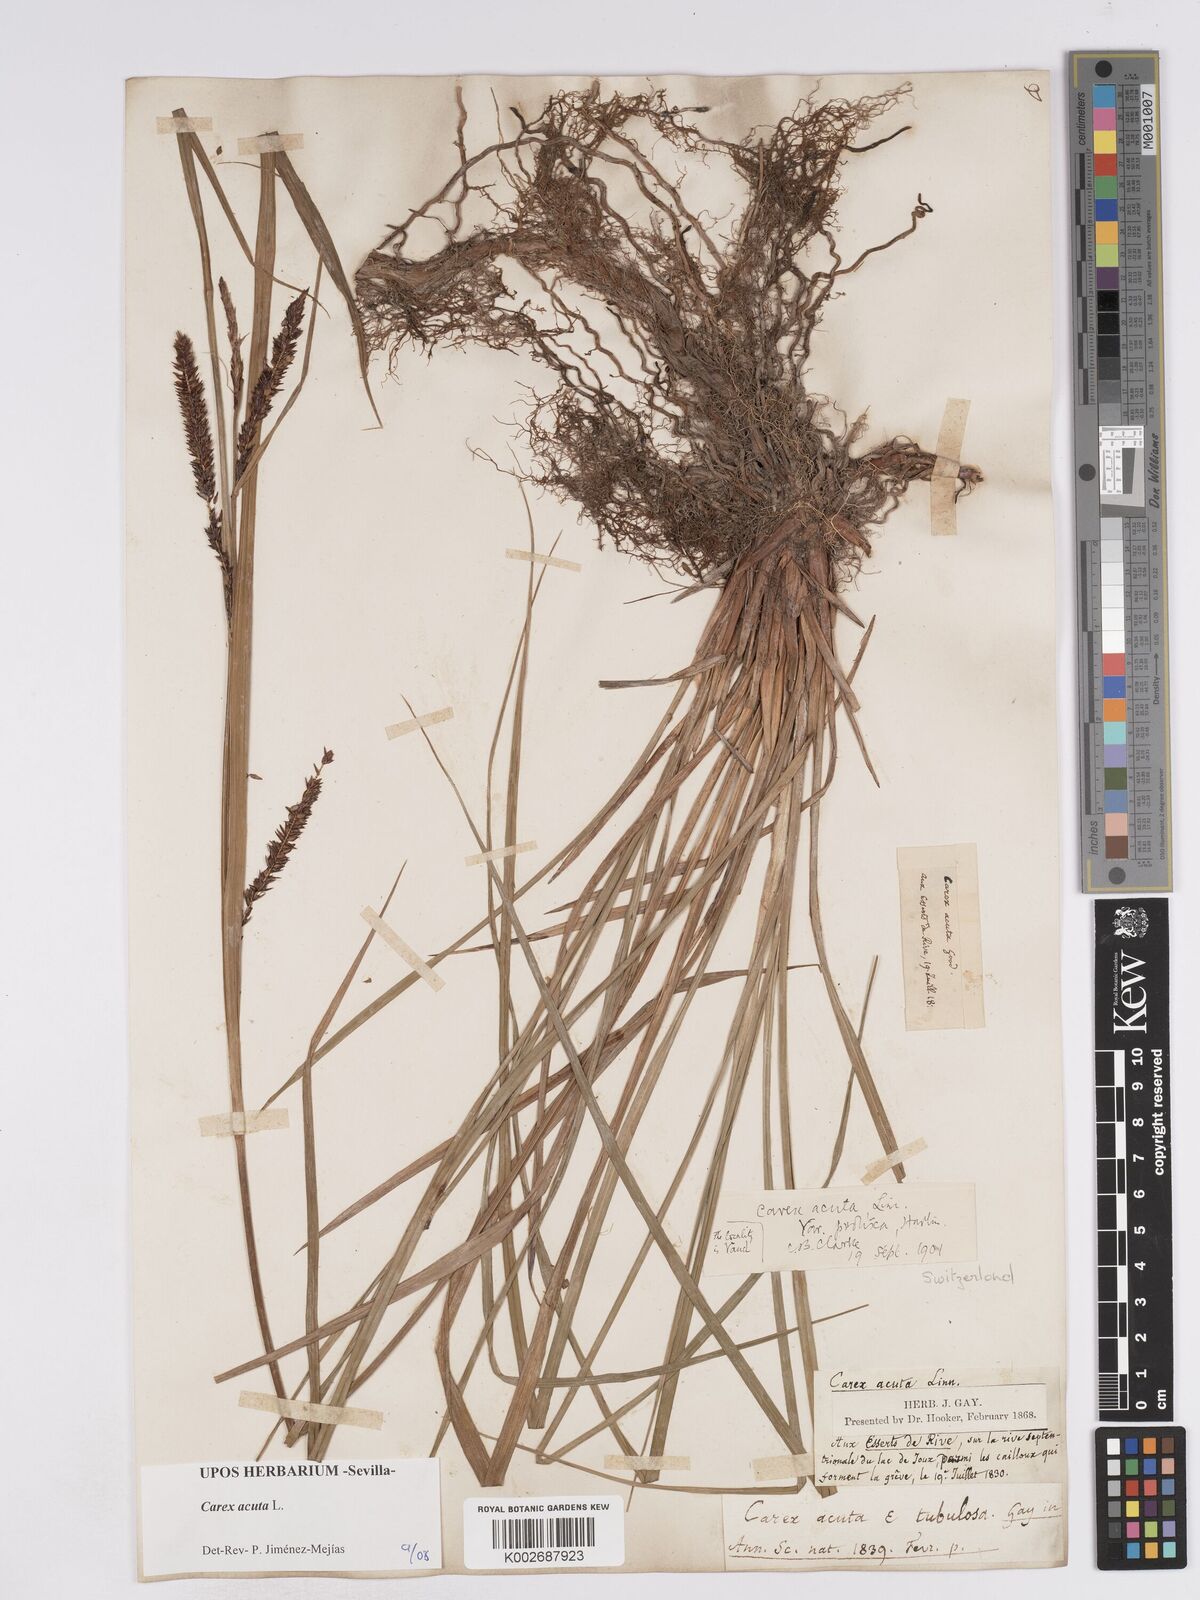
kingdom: Plantae
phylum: Tracheophyta
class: Liliopsida
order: Poales
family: Cyperaceae
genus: Carex
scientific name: Carex acuta
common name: Slender tufted-sedge
